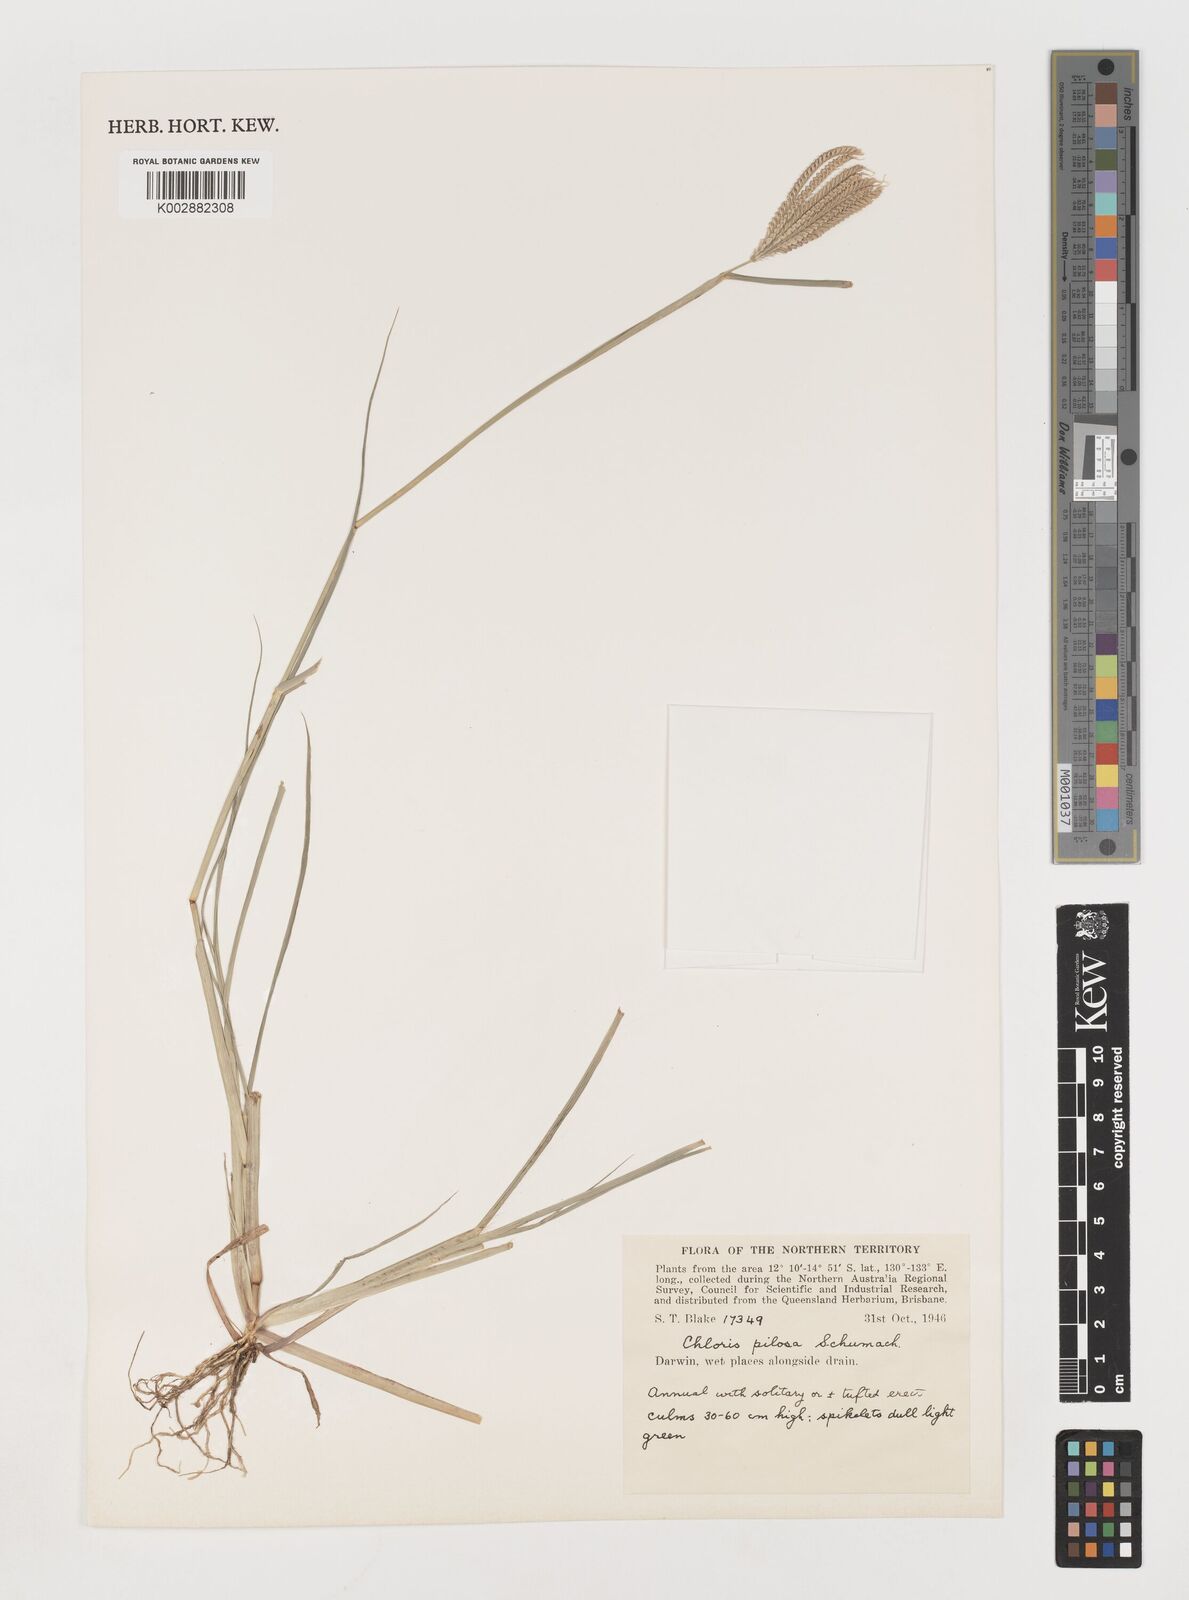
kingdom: Plantae
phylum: Tracheophyta
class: Liliopsida
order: Poales
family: Poaceae
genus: Chloris
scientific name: Chloris pilosa
